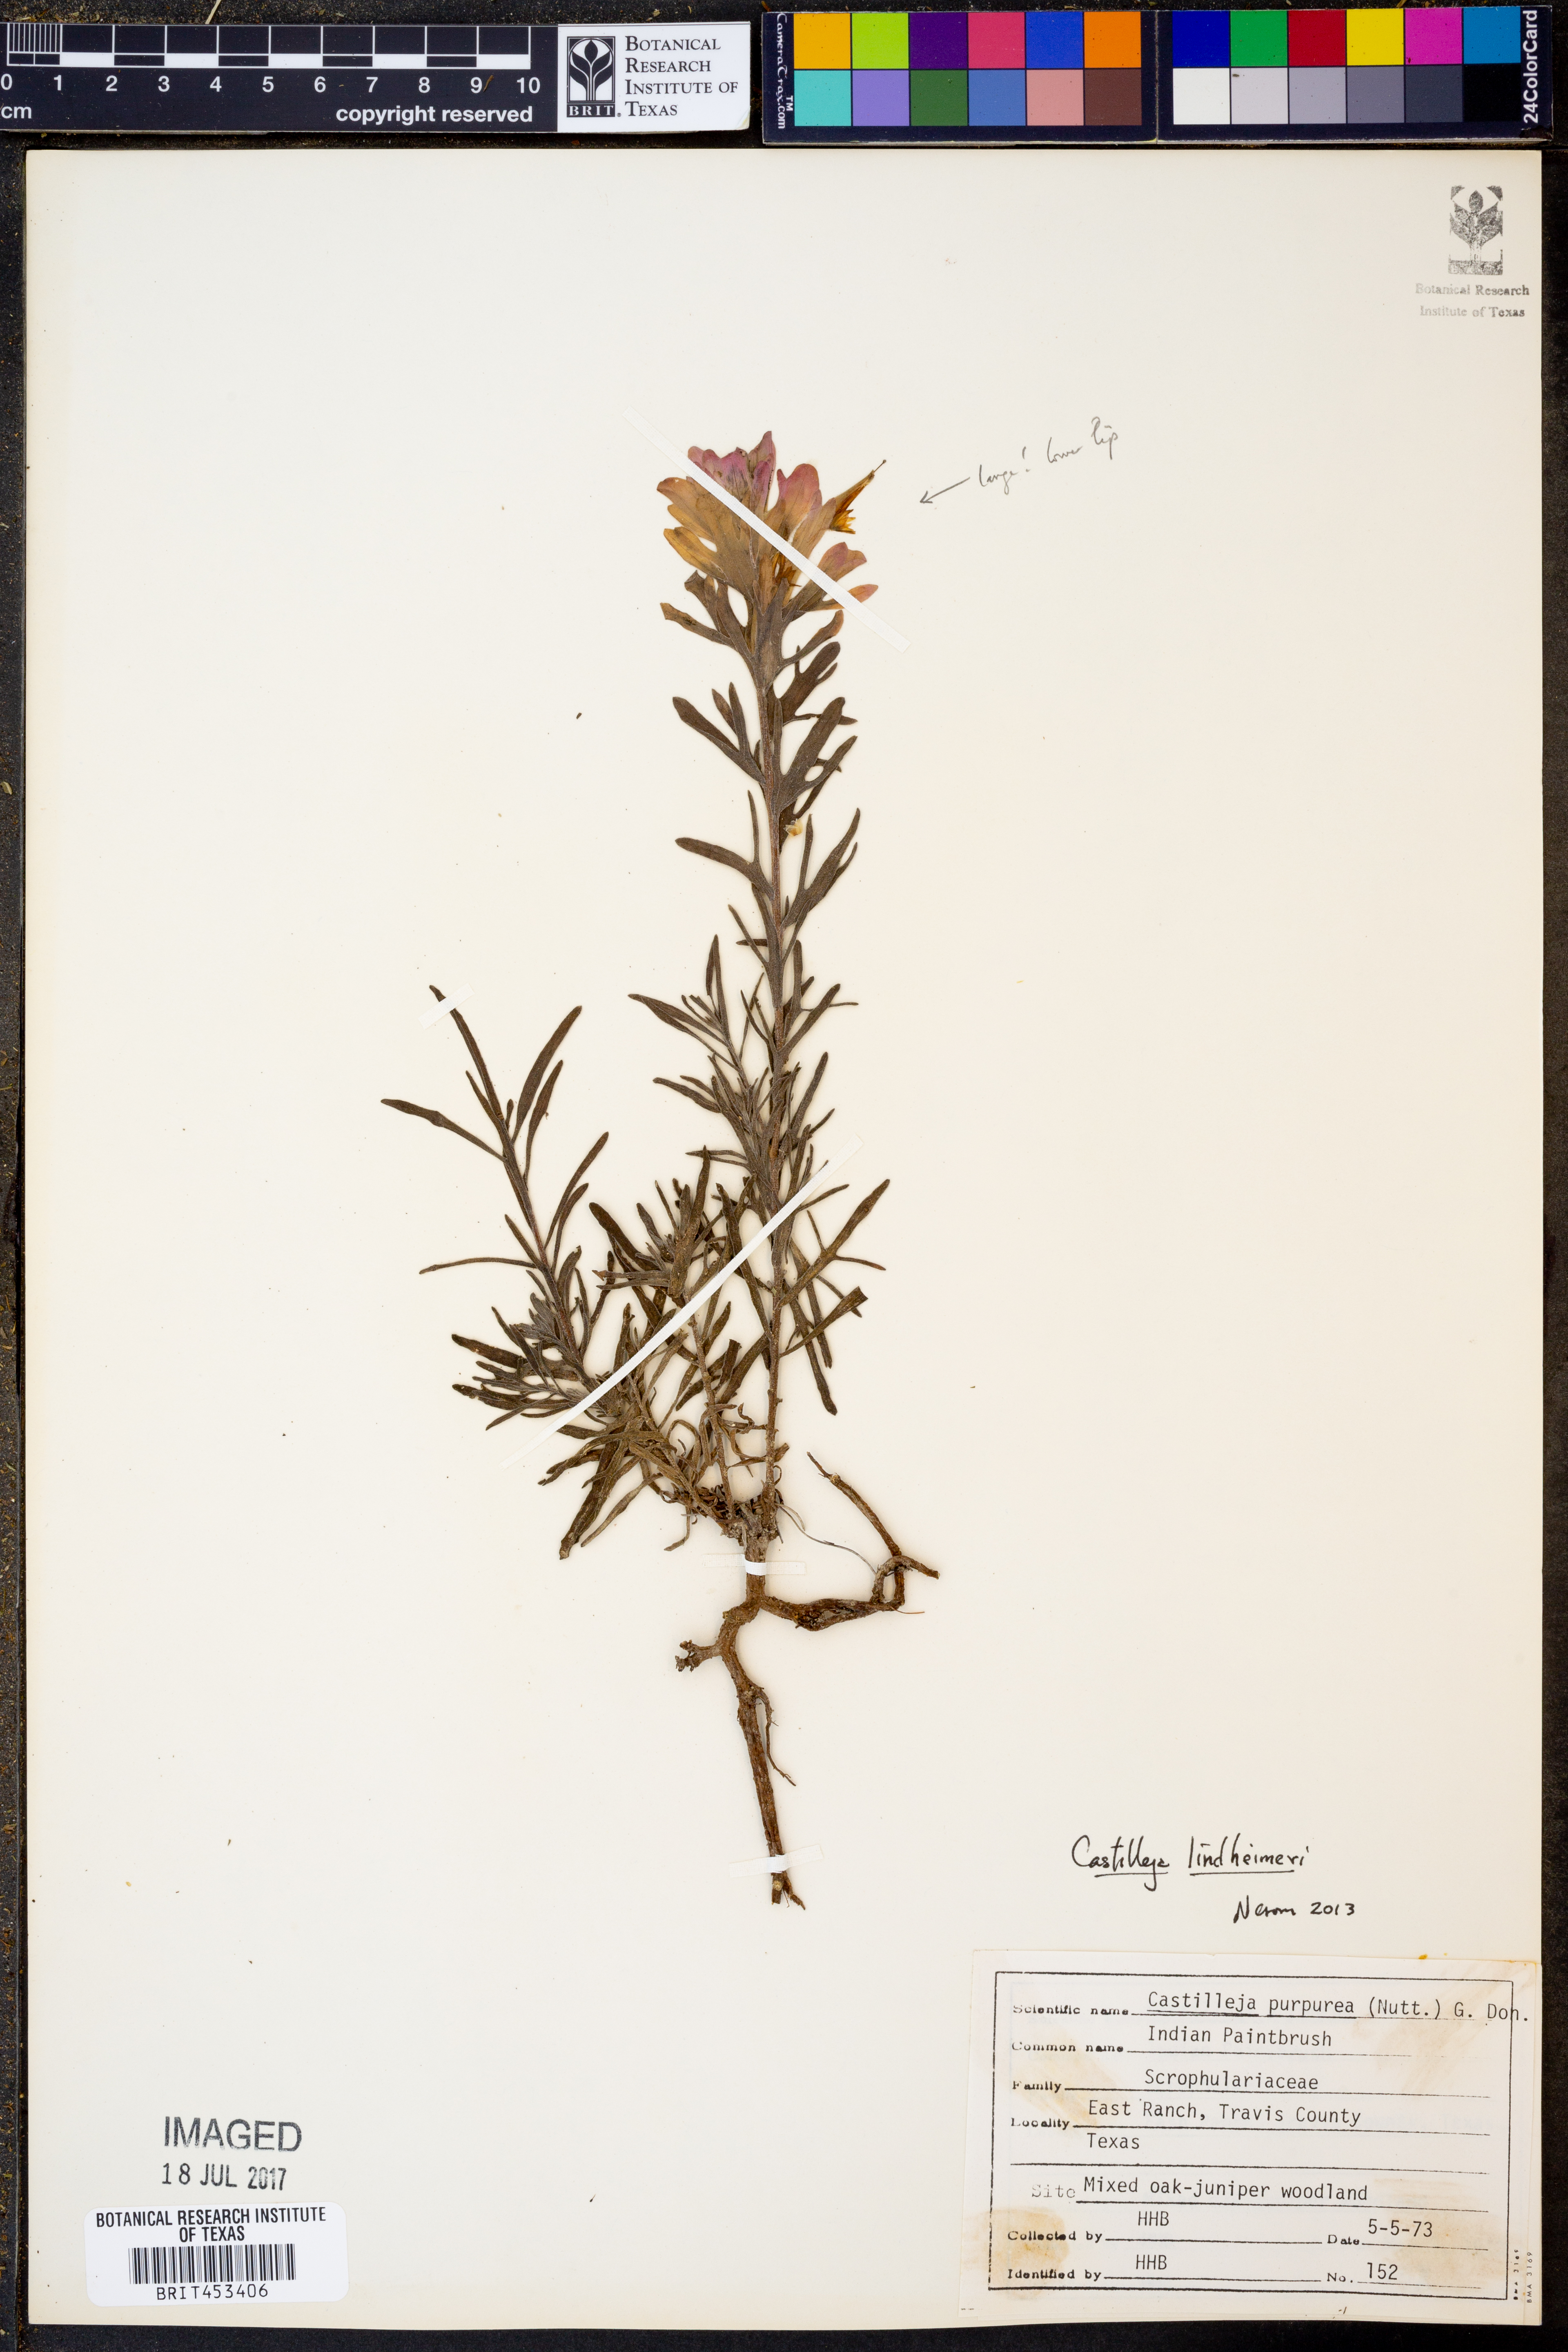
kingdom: Plantae
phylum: Tracheophyta
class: Magnoliopsida
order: Lamiales
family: Orobanchaceae
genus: Castilleja
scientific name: Castilleja lindheimeri
